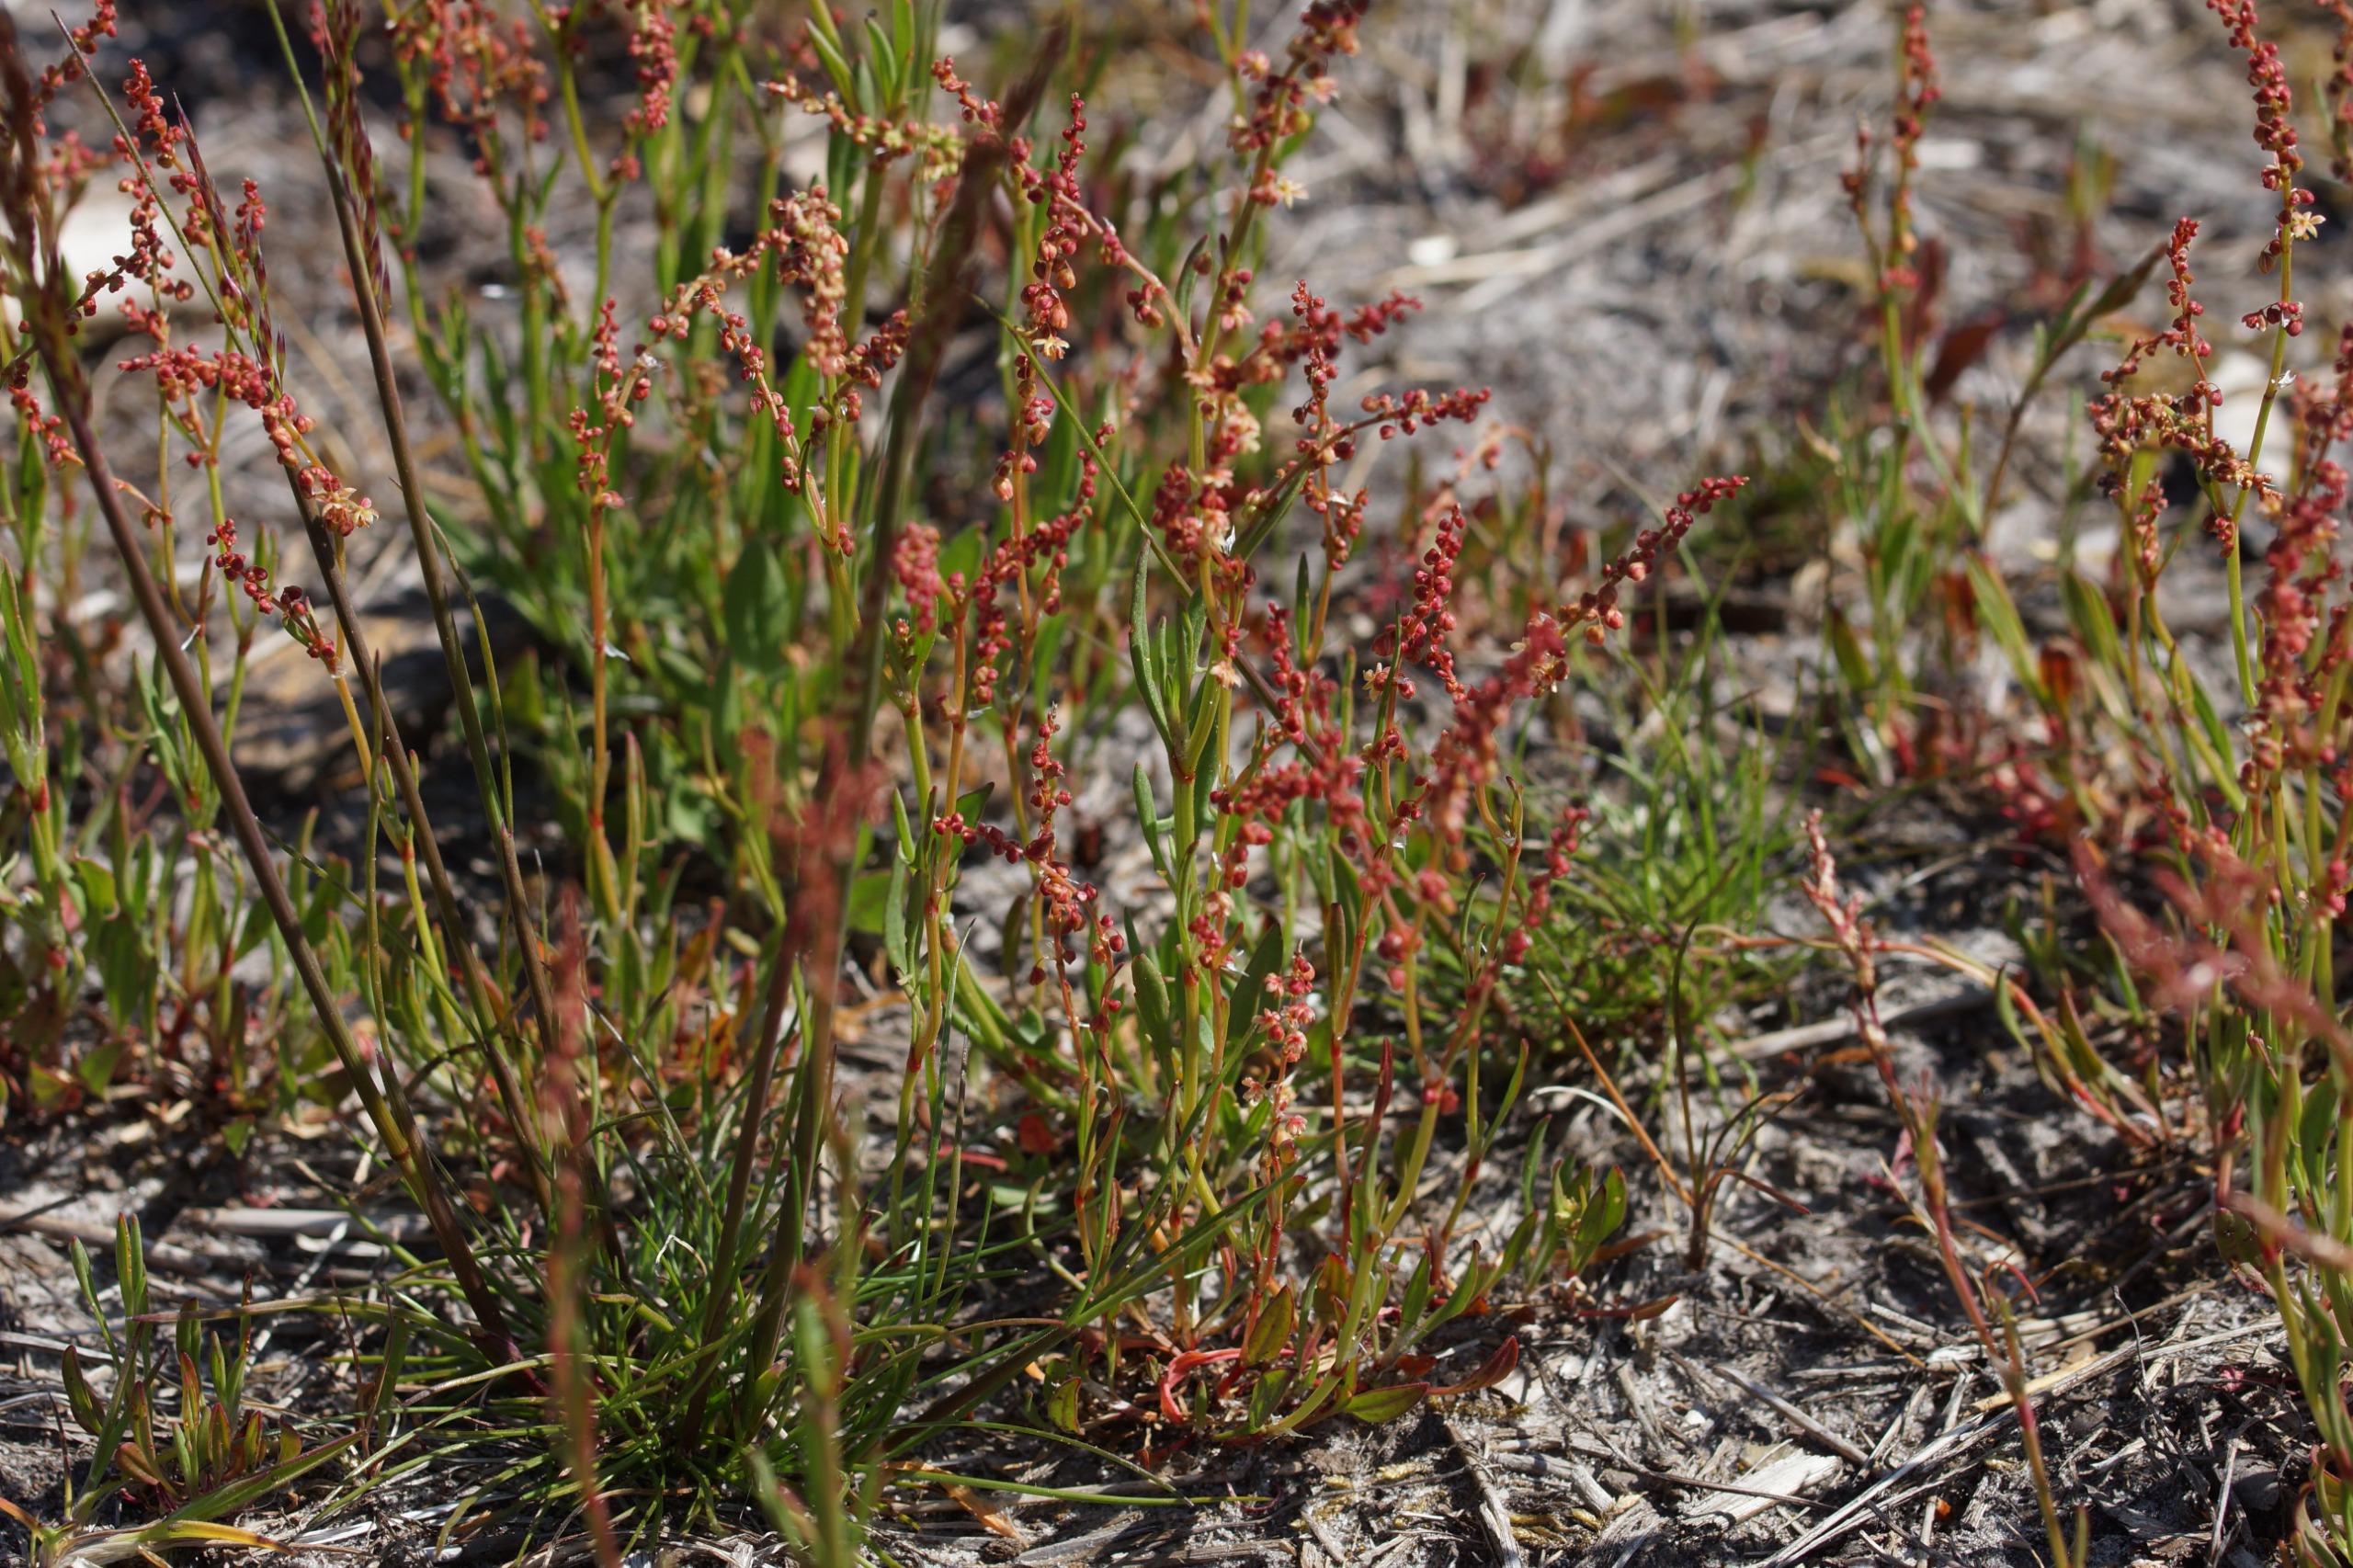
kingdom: Plantae
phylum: Tracheophyta
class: Magnoliopsida
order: Caryophyllales
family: Polygonaceae
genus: Rumex
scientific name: Rumex acetosella
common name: Rødknæ
